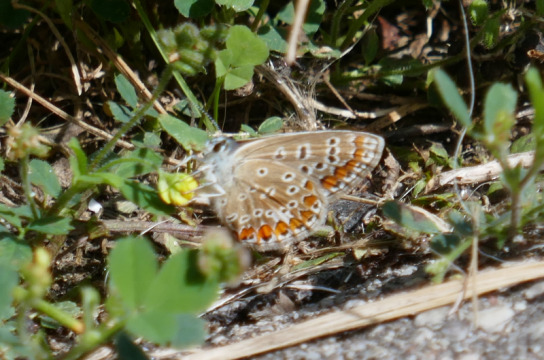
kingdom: Animalia
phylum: Arthropoda
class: Insecta
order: Lepidoptera
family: Lycaenidae
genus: Polyommatus
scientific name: Polyommatus icarus
